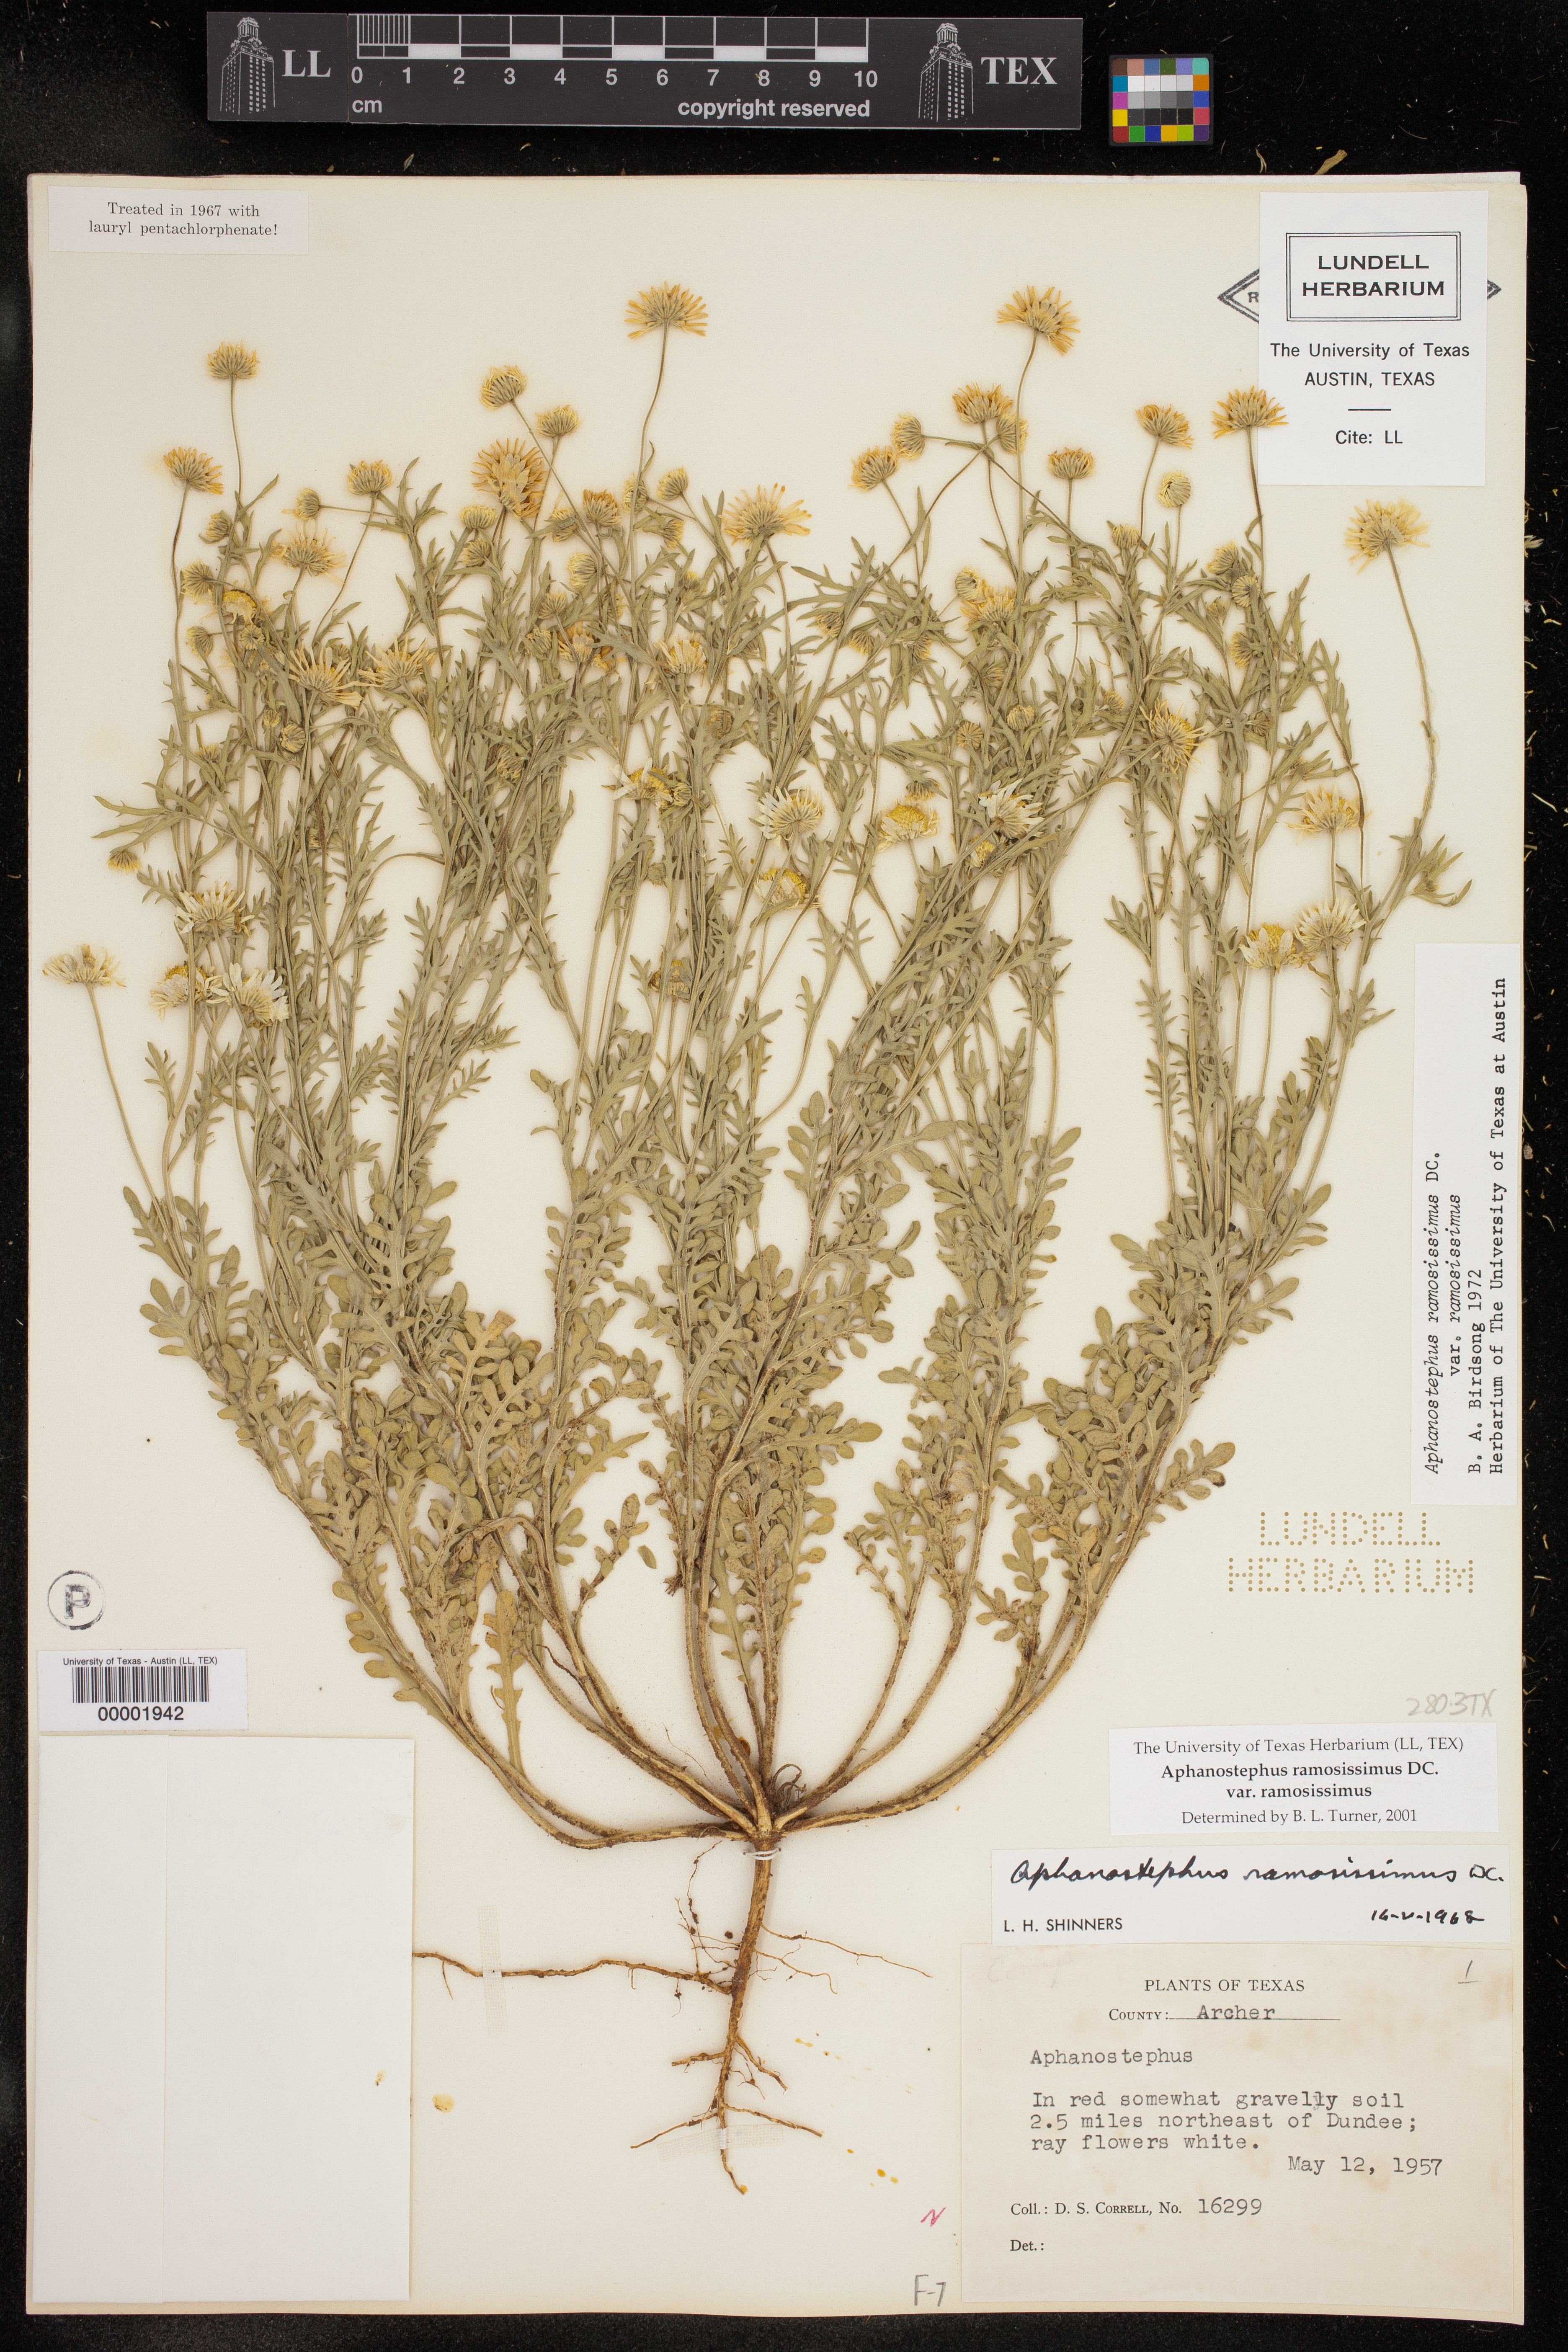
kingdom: Plantae
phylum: Tracheophyta
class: Magnoliopsida
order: Asterales
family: Asteraceae
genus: Aphanostephus
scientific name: Aphanostephus ramosissimus
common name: Plains lazy daisy
